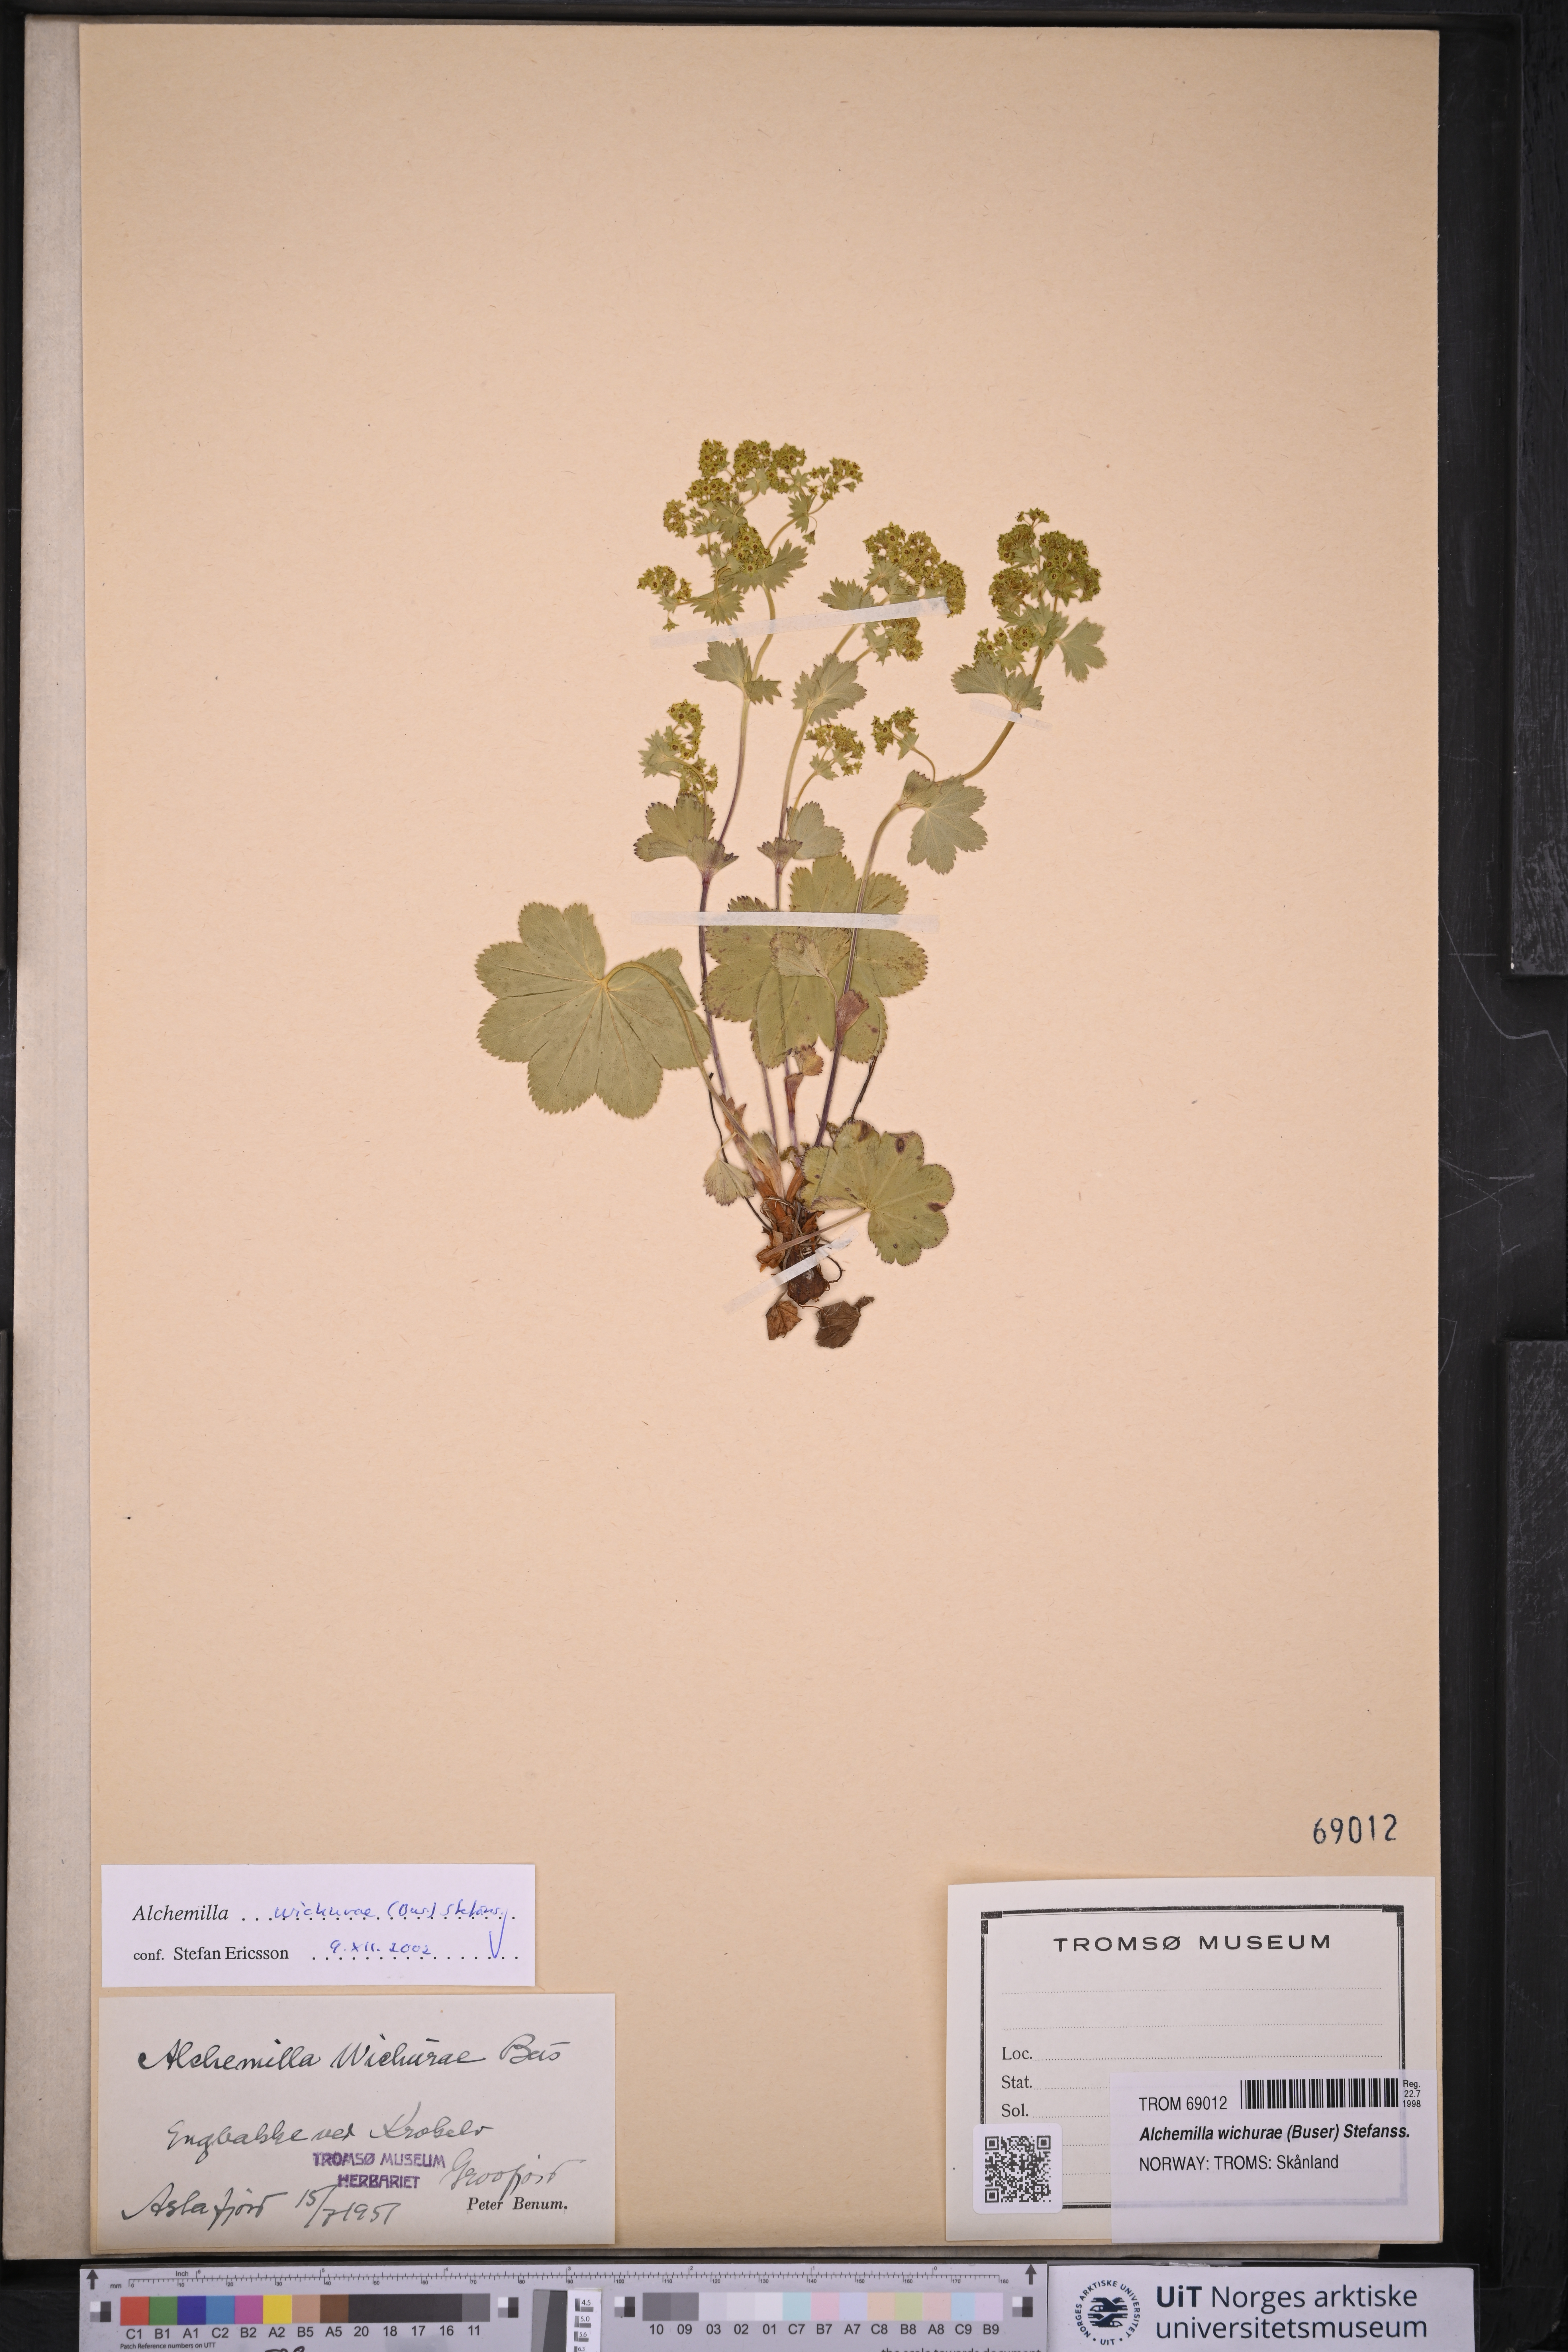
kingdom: Plantae
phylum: Tracheophyta
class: Magnoliopsida
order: Rosales
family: Rosaceae
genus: Alchemilla
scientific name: Alchemilla wichurae
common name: Rock lady's mantle
